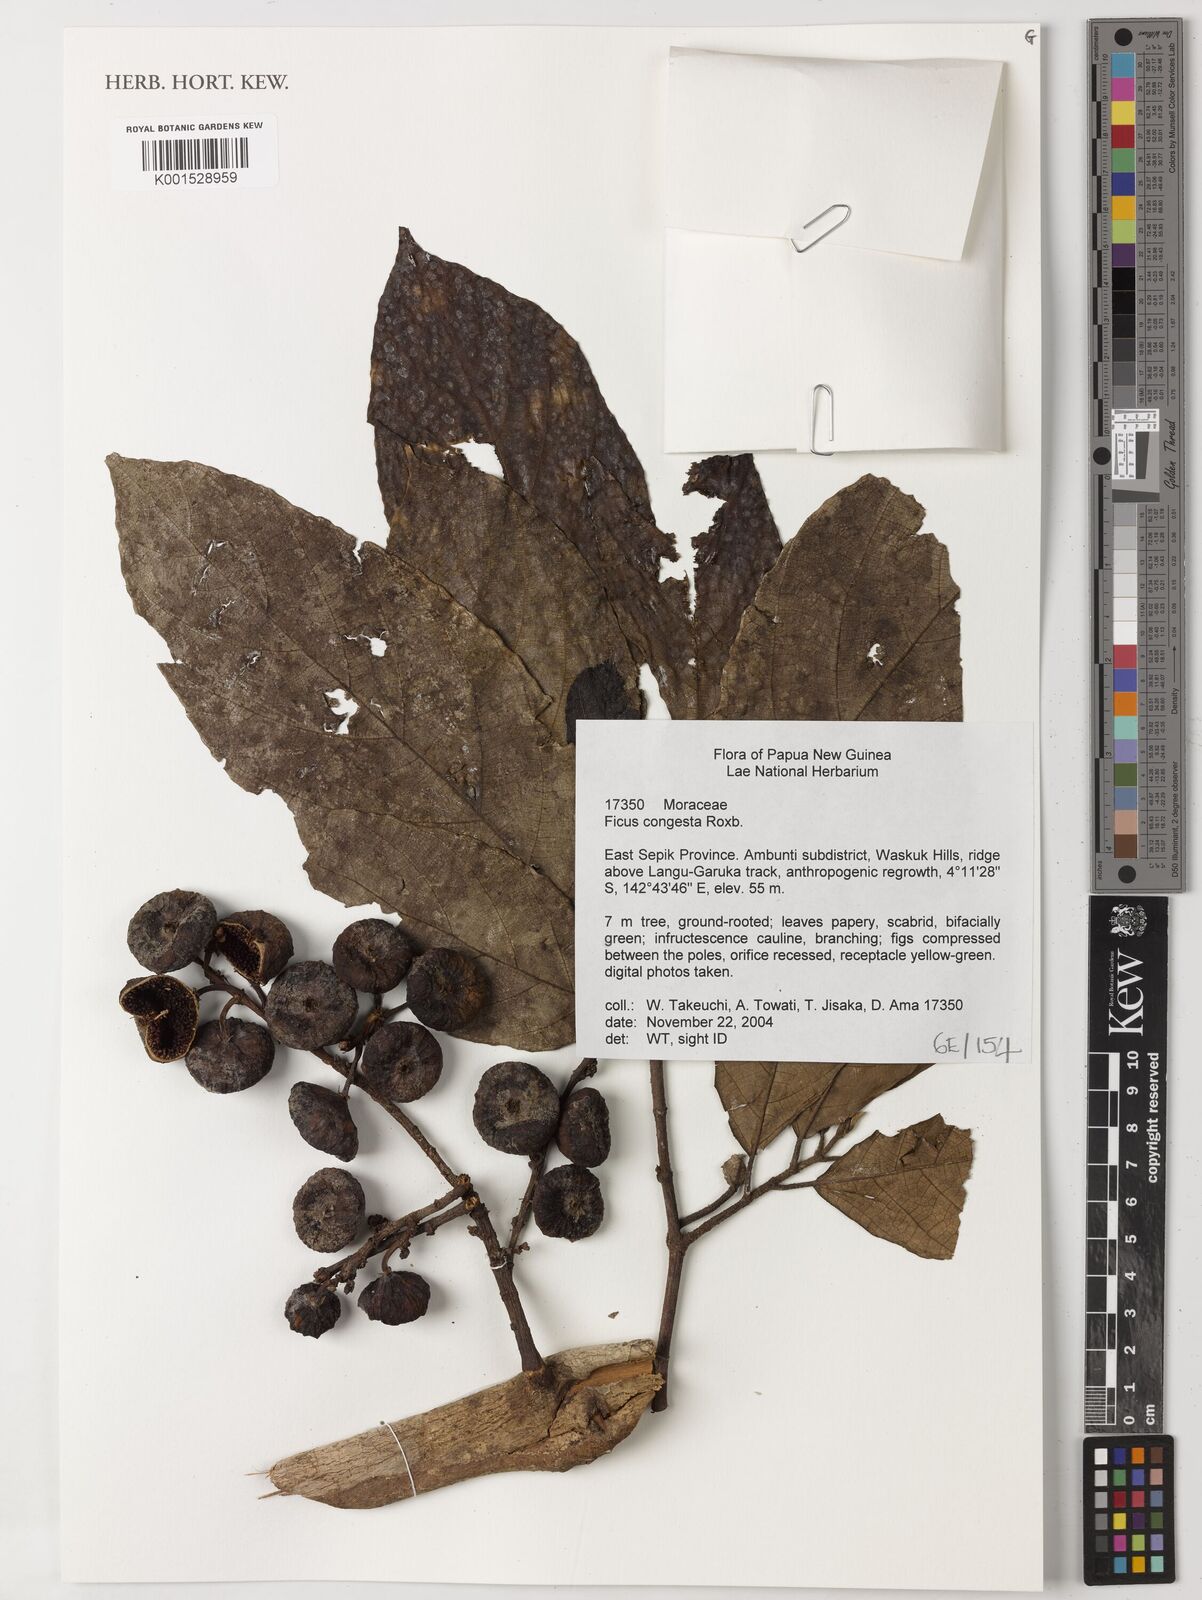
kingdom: Plantae
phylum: Tracheophyta
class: Magnoliopsida
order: Rosales
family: Moraceae
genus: Ficus
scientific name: Ficus congesta
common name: Cluster fig
